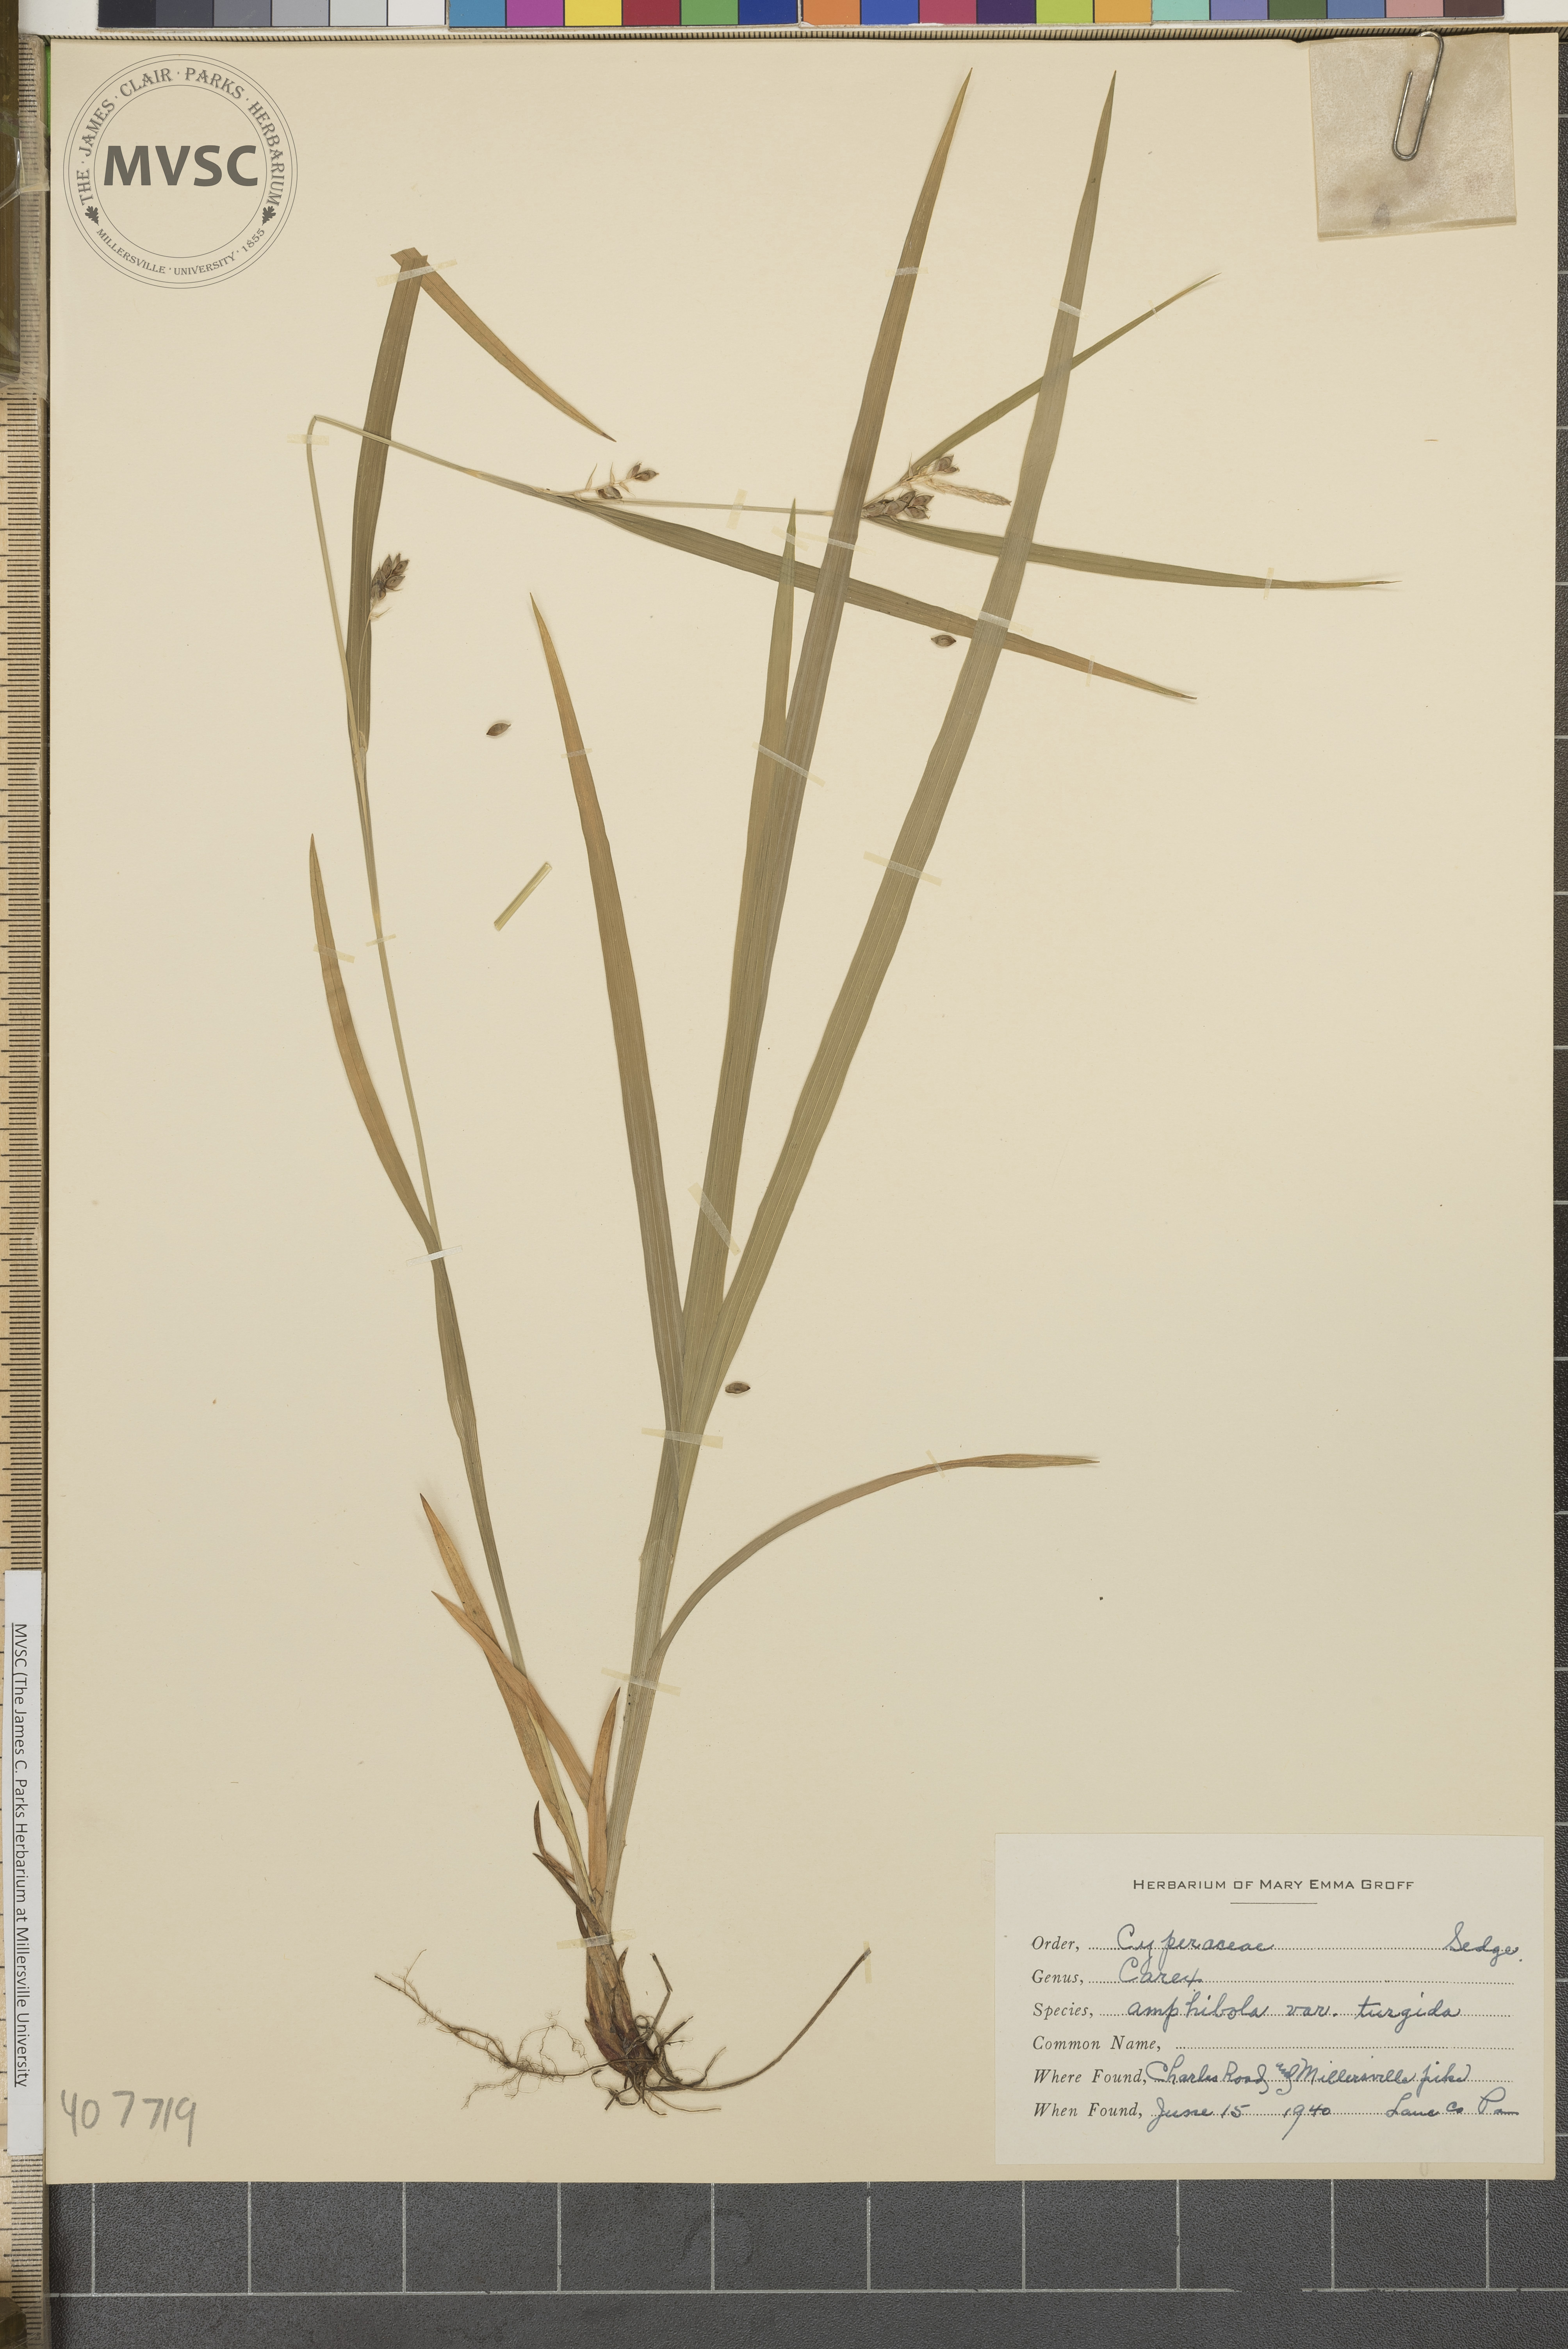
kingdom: Plantae
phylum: Tracheophyta
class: Liliopsida
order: Poales
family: Cyperaceae
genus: Carex
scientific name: Carex amphibola
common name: Amphibious sedge
